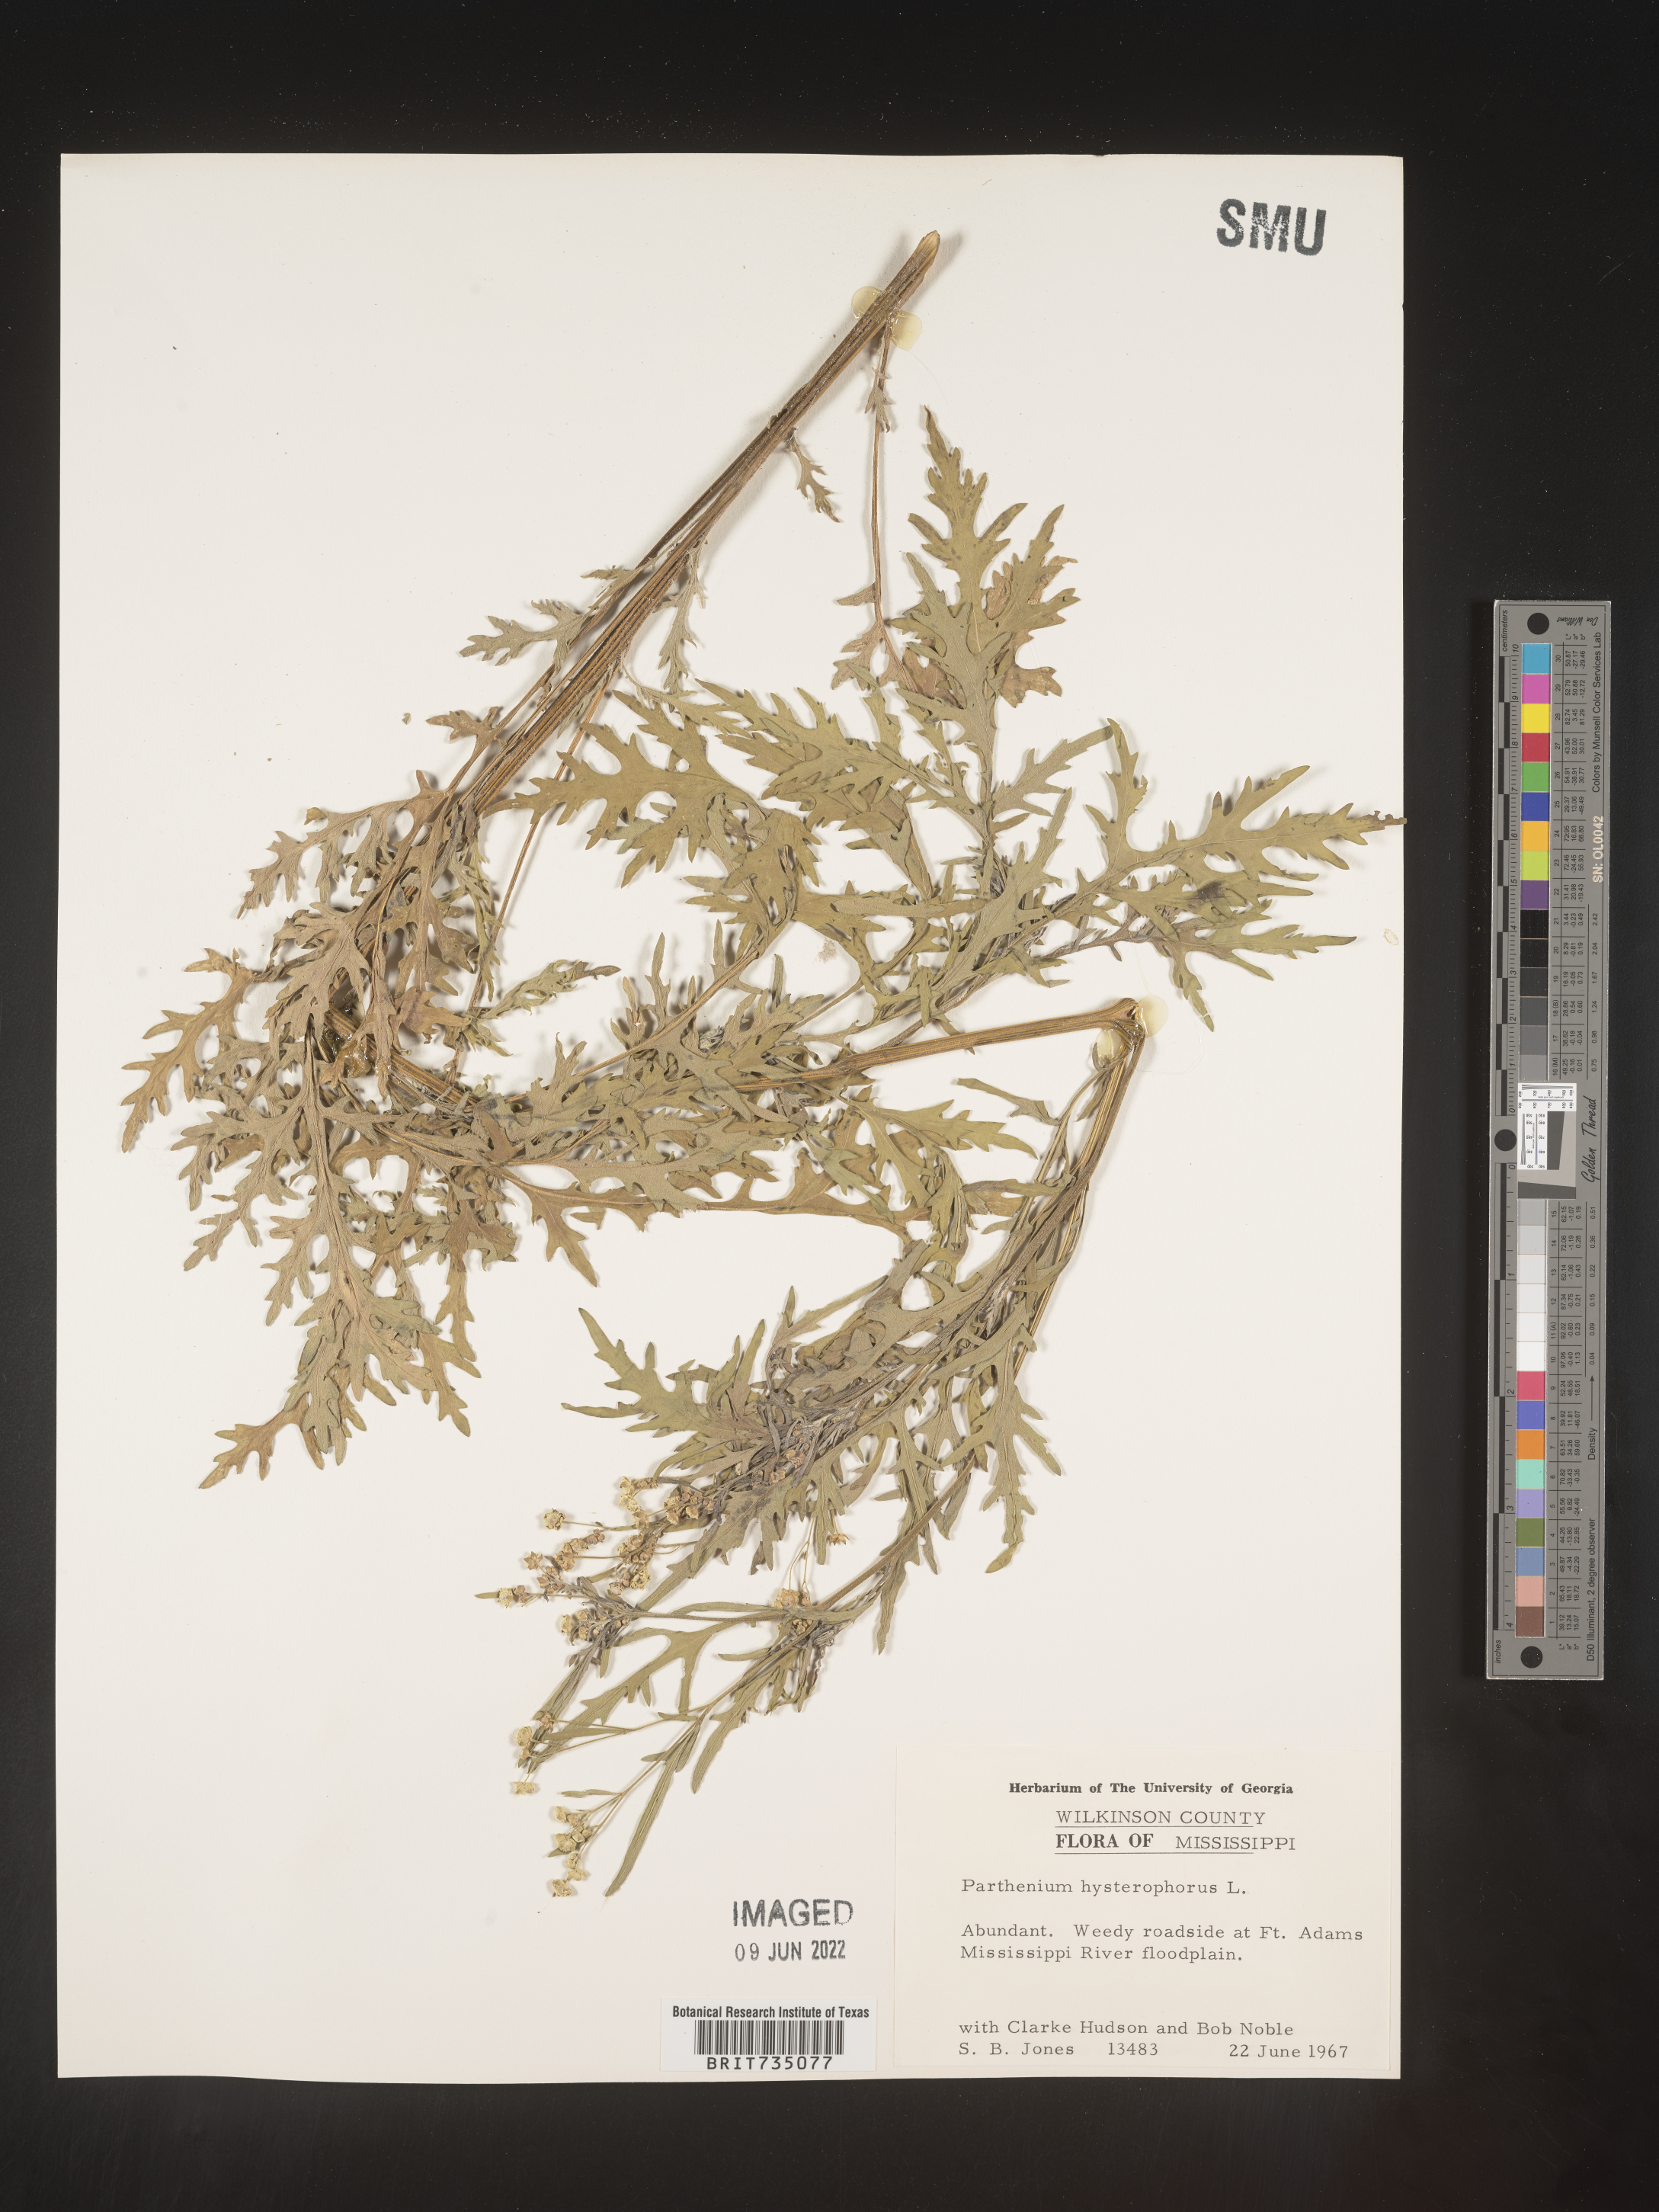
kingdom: Plantae
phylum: Tracheophyta
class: Magnoliopsida
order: Asterales
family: Asteraceae
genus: Parthenium
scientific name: Parthenium hysterophorus
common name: Santa maria feverfew
